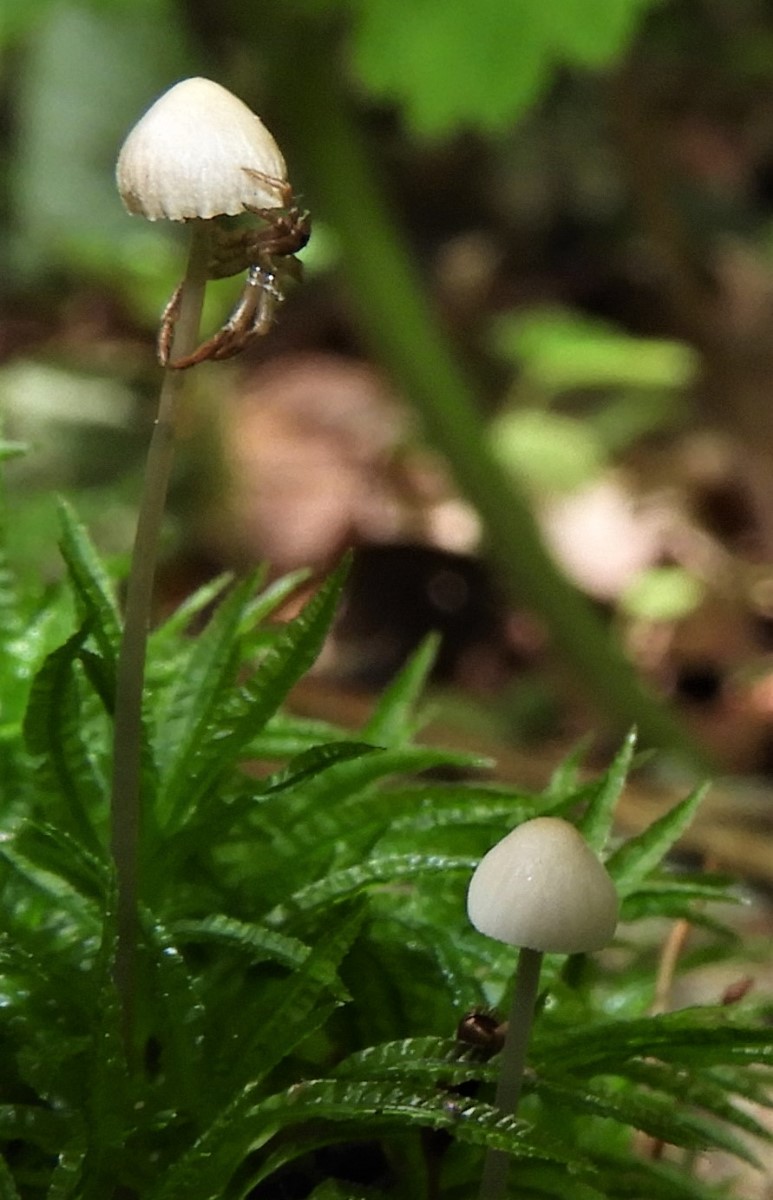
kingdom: Fungi
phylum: Basidiomycota
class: Agaricomycetes
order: Agaricales
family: Mycenaceae
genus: Mycena
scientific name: Mycena
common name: huesvamp
